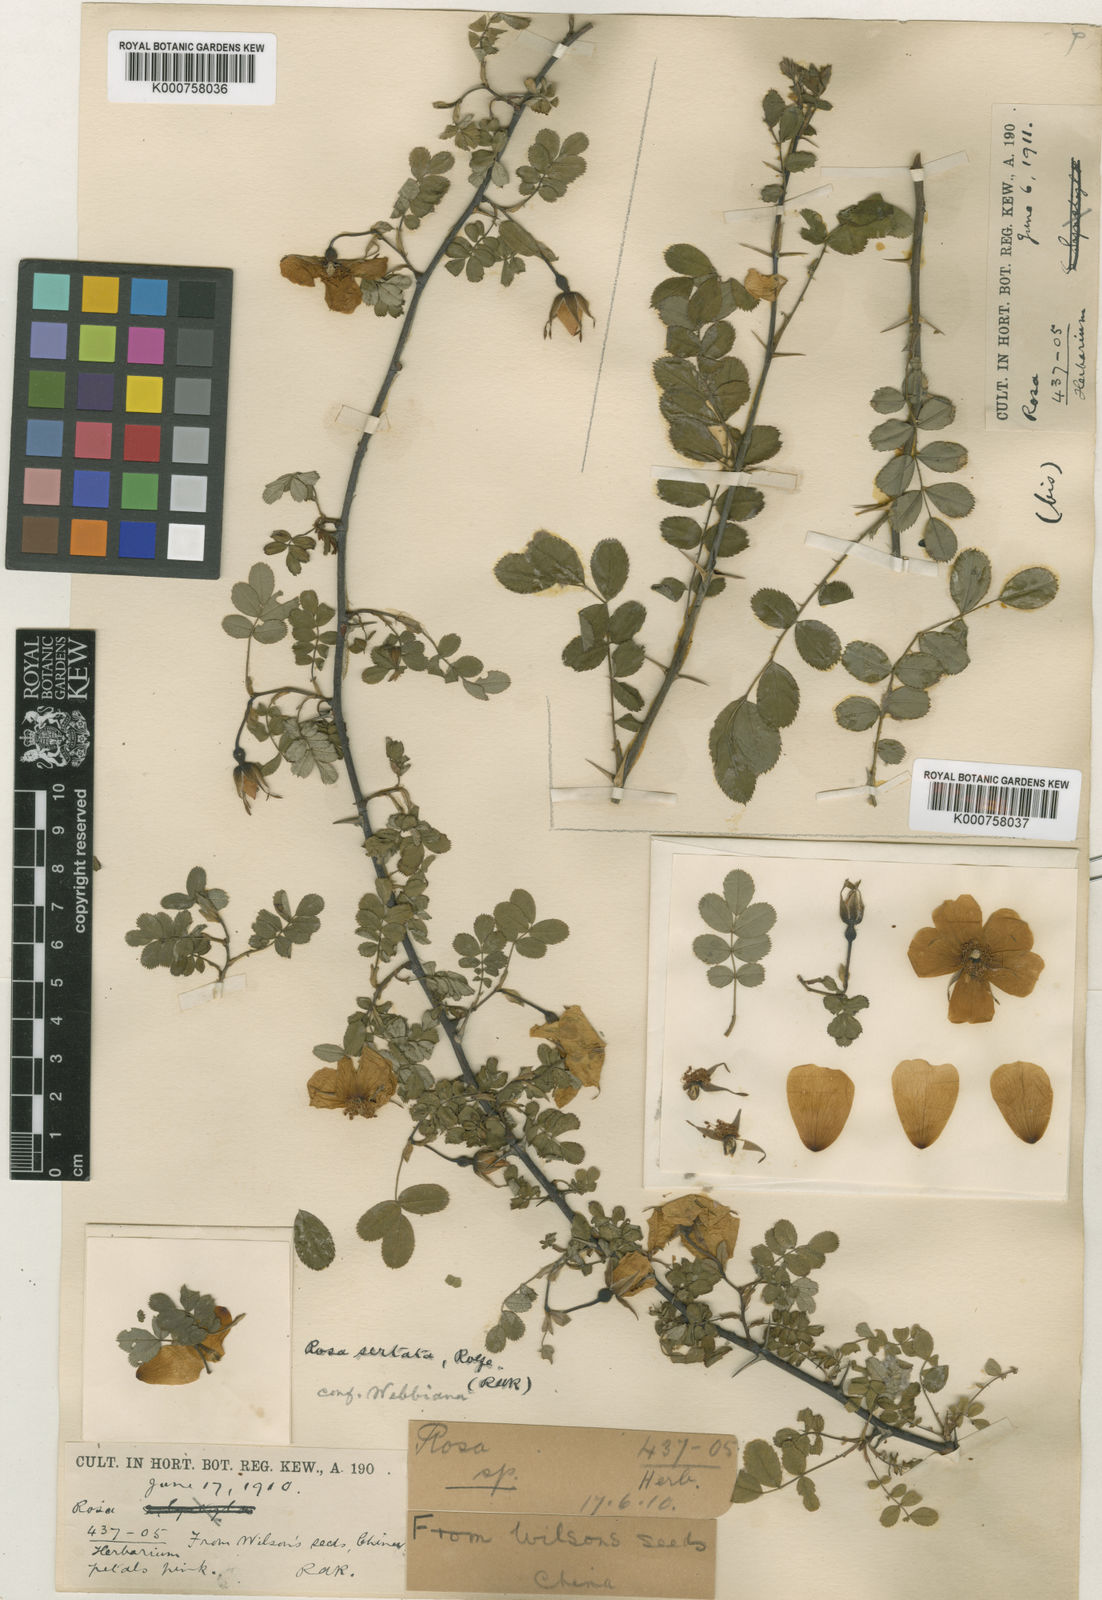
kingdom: Plantae
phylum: Tracheophyta
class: Magnoliopsida
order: Rosales
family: Rosaceae
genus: Rosa
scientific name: Rosa sertata
